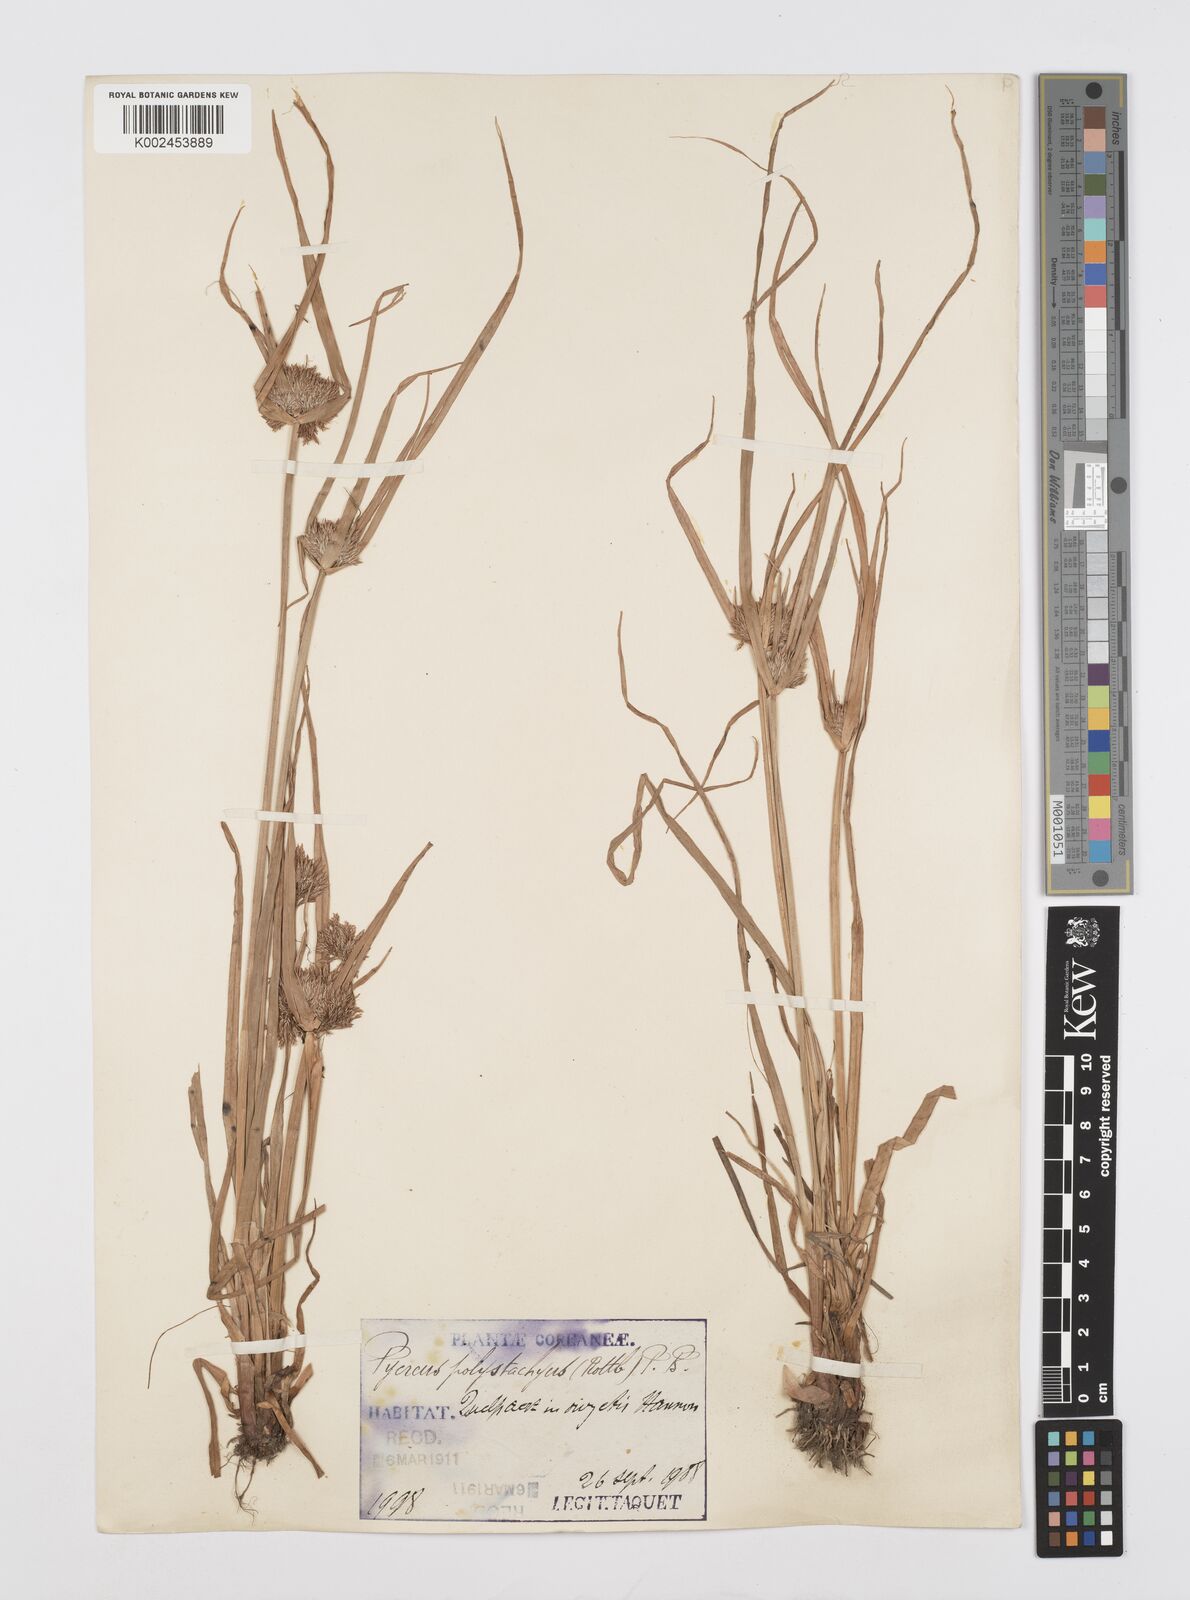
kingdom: Plantae
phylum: Tracheophyta
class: Liliopsida
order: Poales
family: Cyperaceae
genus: Cyperus
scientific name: Cyperus polystachyos
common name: Bunchy flat sedge
